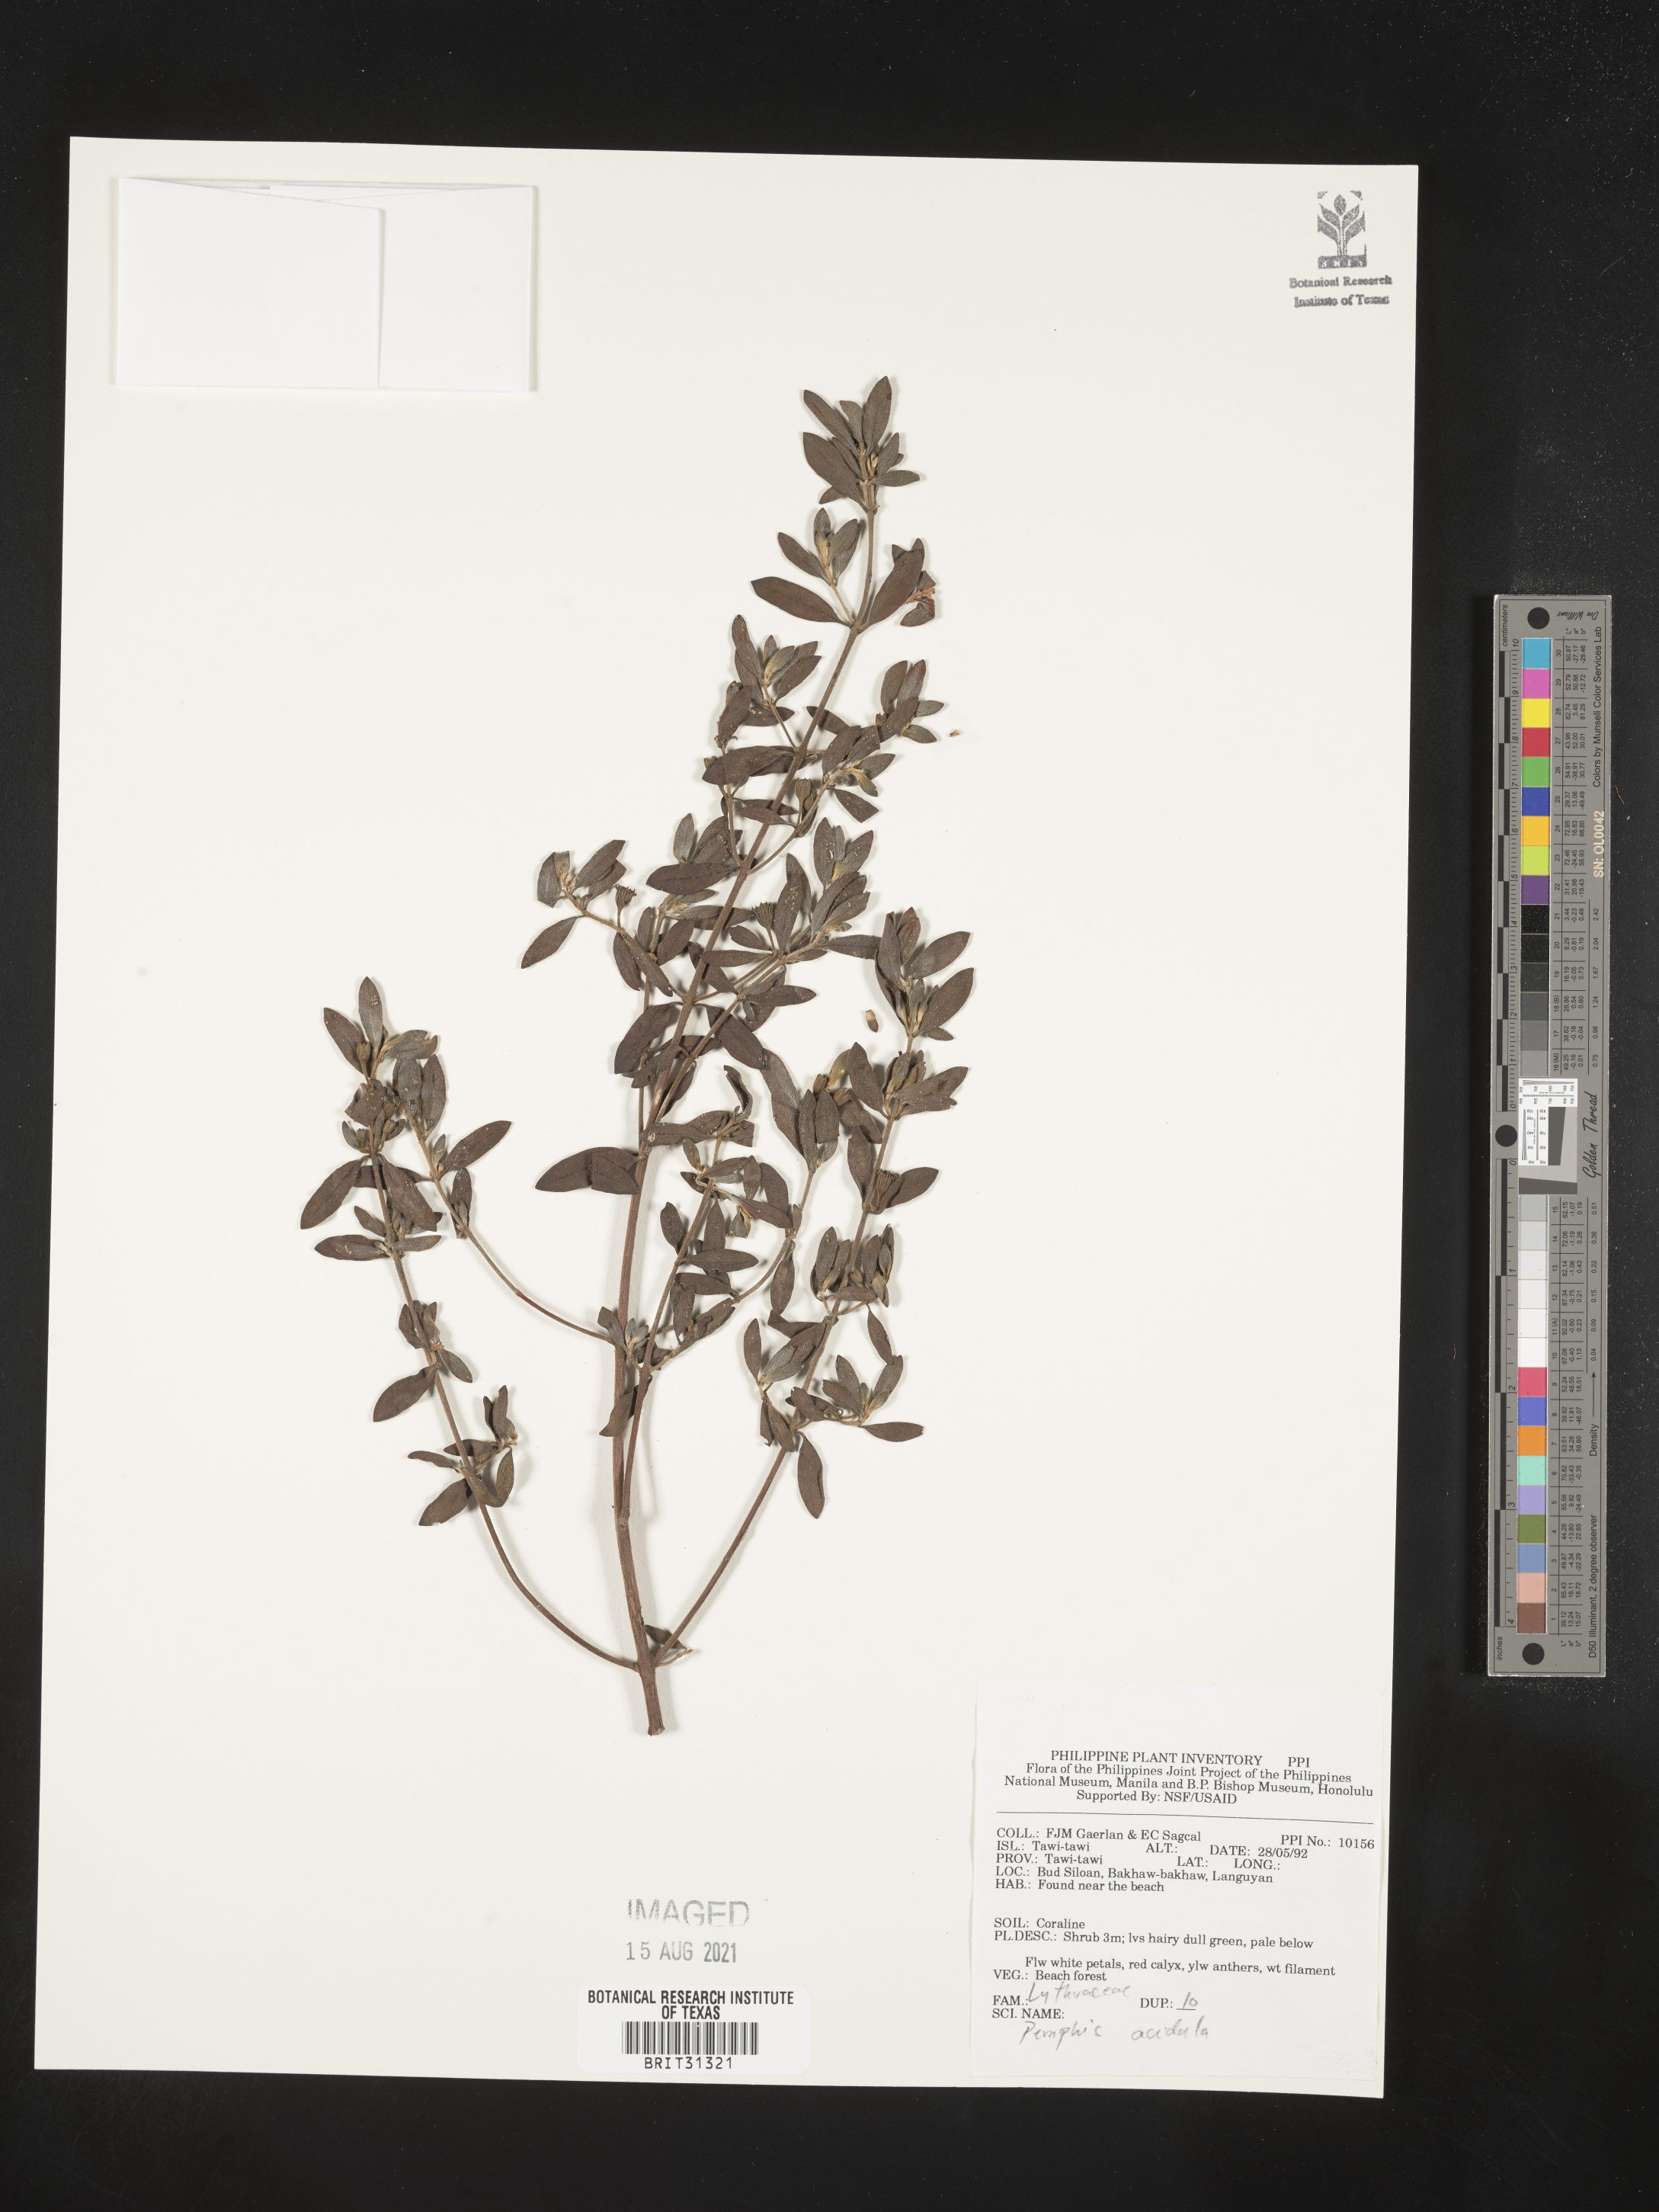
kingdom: Plantae
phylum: Tracheophyta
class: Magnoliopsida
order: Myrtales
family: Lythraceae
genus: Pemphis
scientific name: Pemphis acidula
